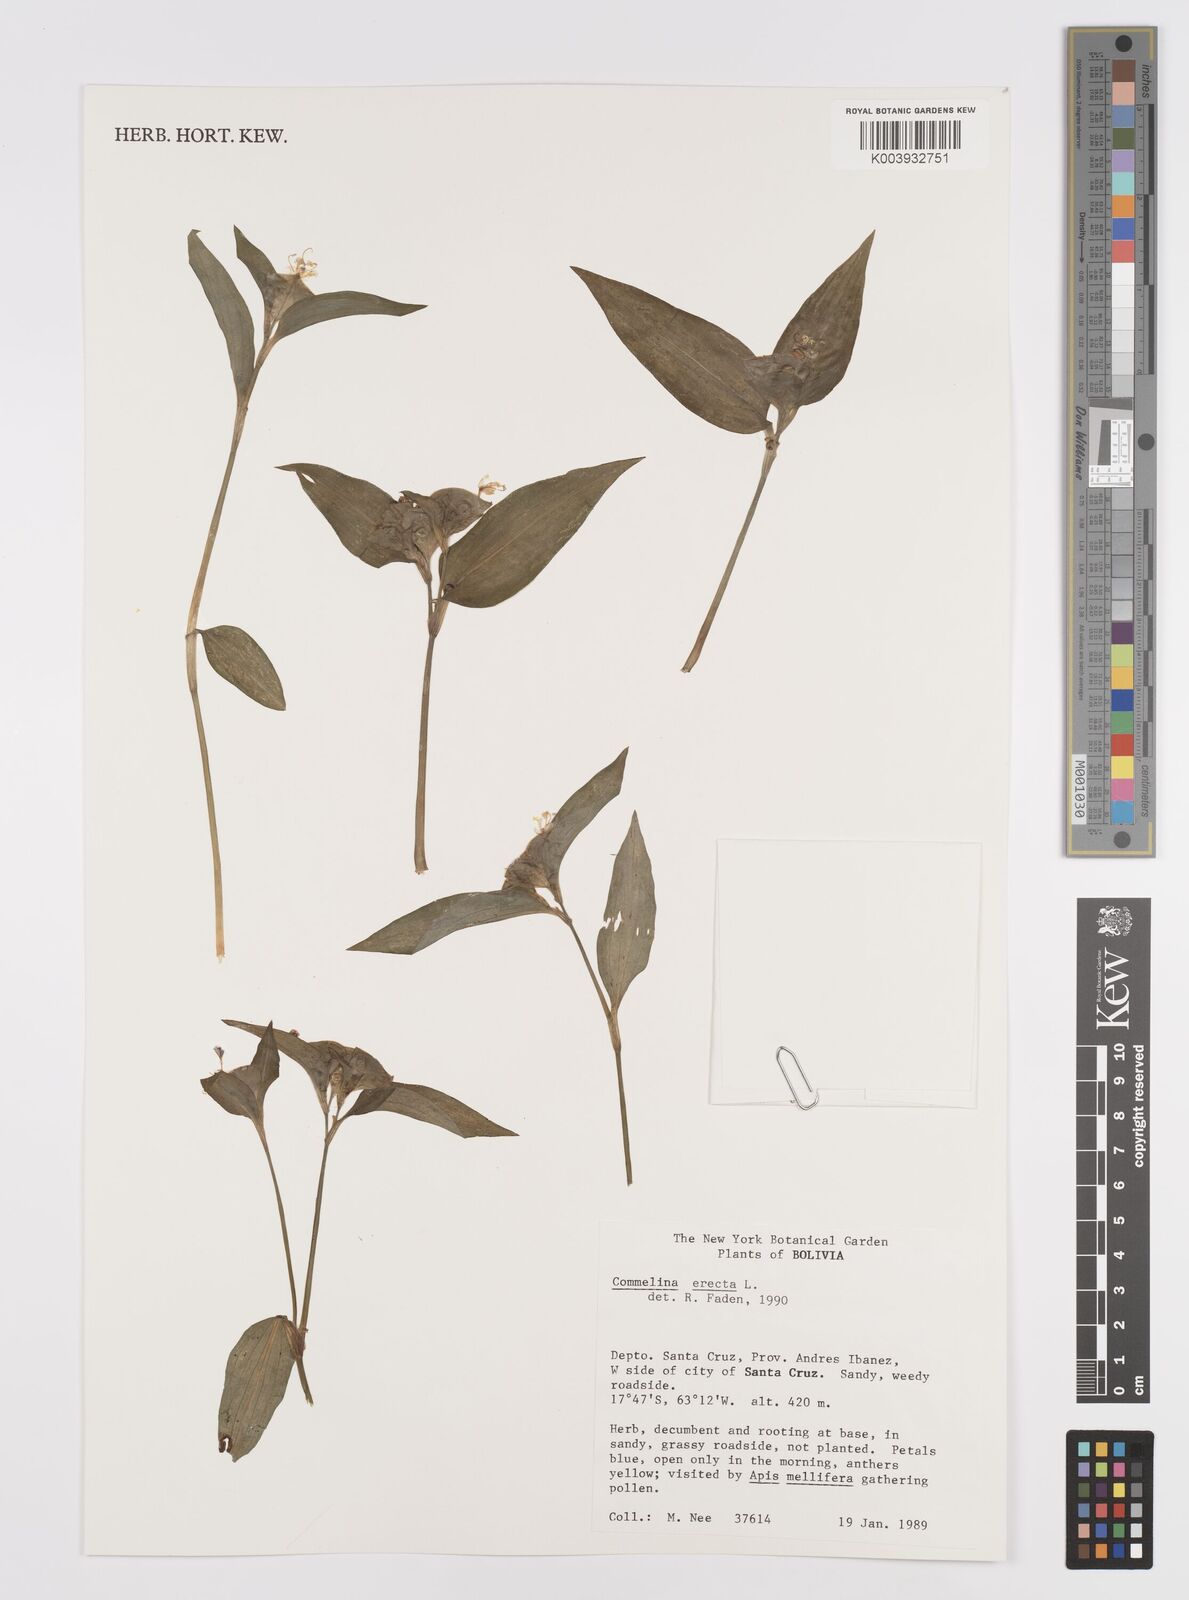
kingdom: Plantae
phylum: Tracheophyta
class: Liliopsida
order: Commelinales
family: Commelinaceae
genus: Commelina
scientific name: Commelina erecta
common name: Blousel blommetjie
